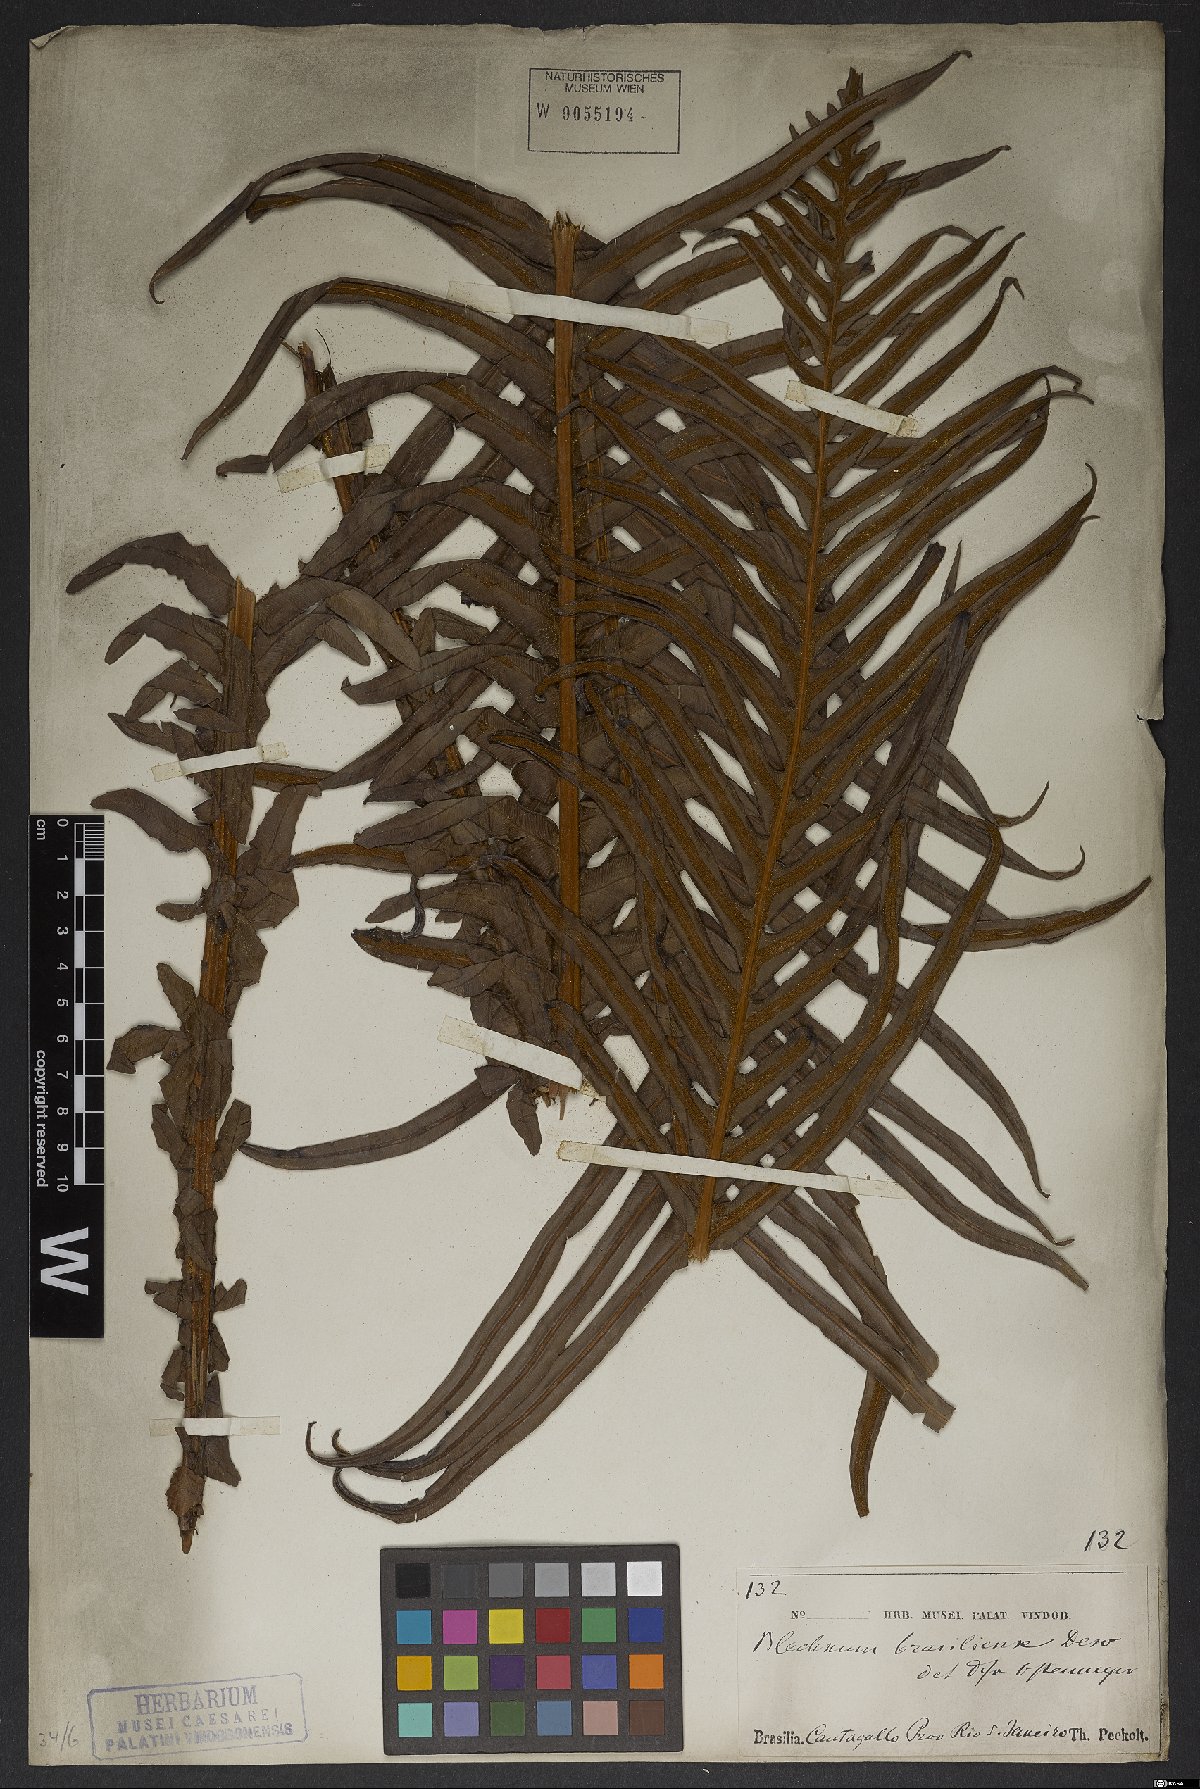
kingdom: Plantae
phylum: Tracheophyta
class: Polypodiopsida
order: Polypodiales
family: Blechnaceae
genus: Neoblechnum
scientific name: Neoblechnum brasiliense
